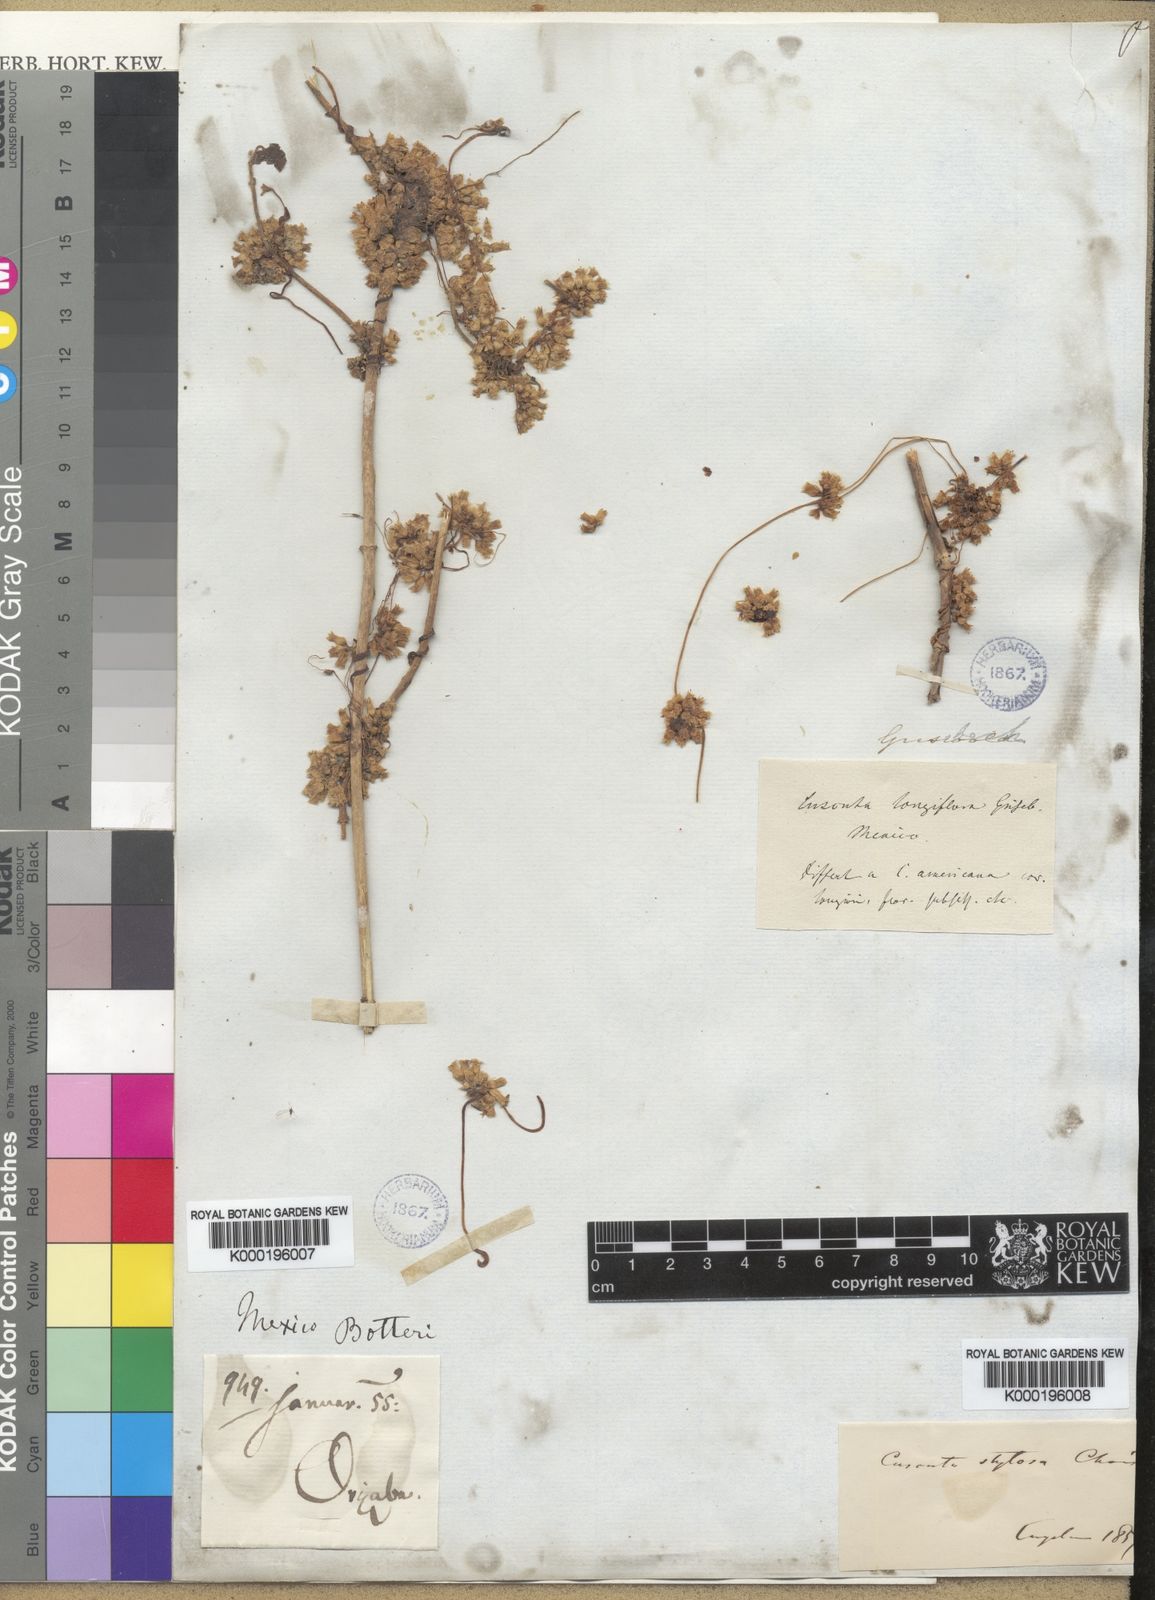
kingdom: Plantae
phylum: Tracheophyta
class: Magnoliopsida
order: Solanales
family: Convolvulaceae
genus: Cuscuta
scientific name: Cuscuta corymbosa
